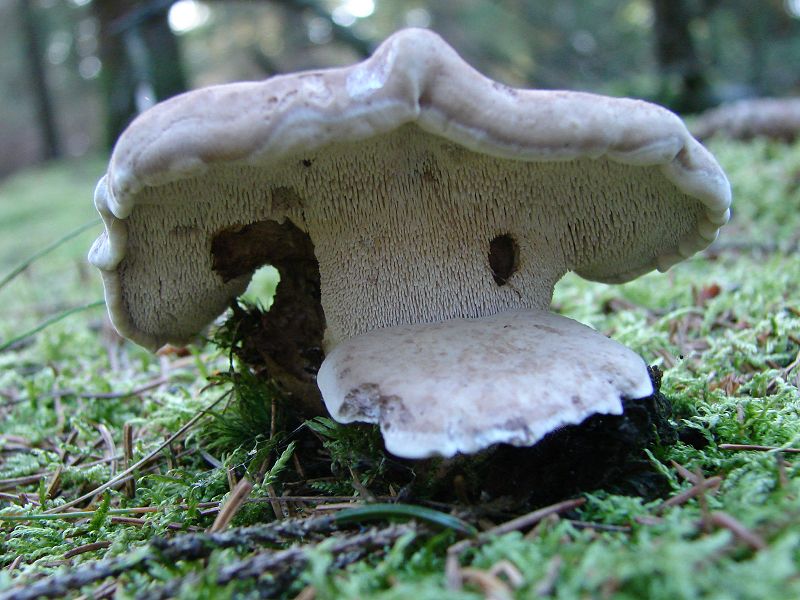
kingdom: Fungi
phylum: Basidiomycota
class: Agaricomycetes
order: Thelephorales
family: Thelephoraceae
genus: Phellodon
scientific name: Phellodon violascens
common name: violetbrun duftpigsvamp
